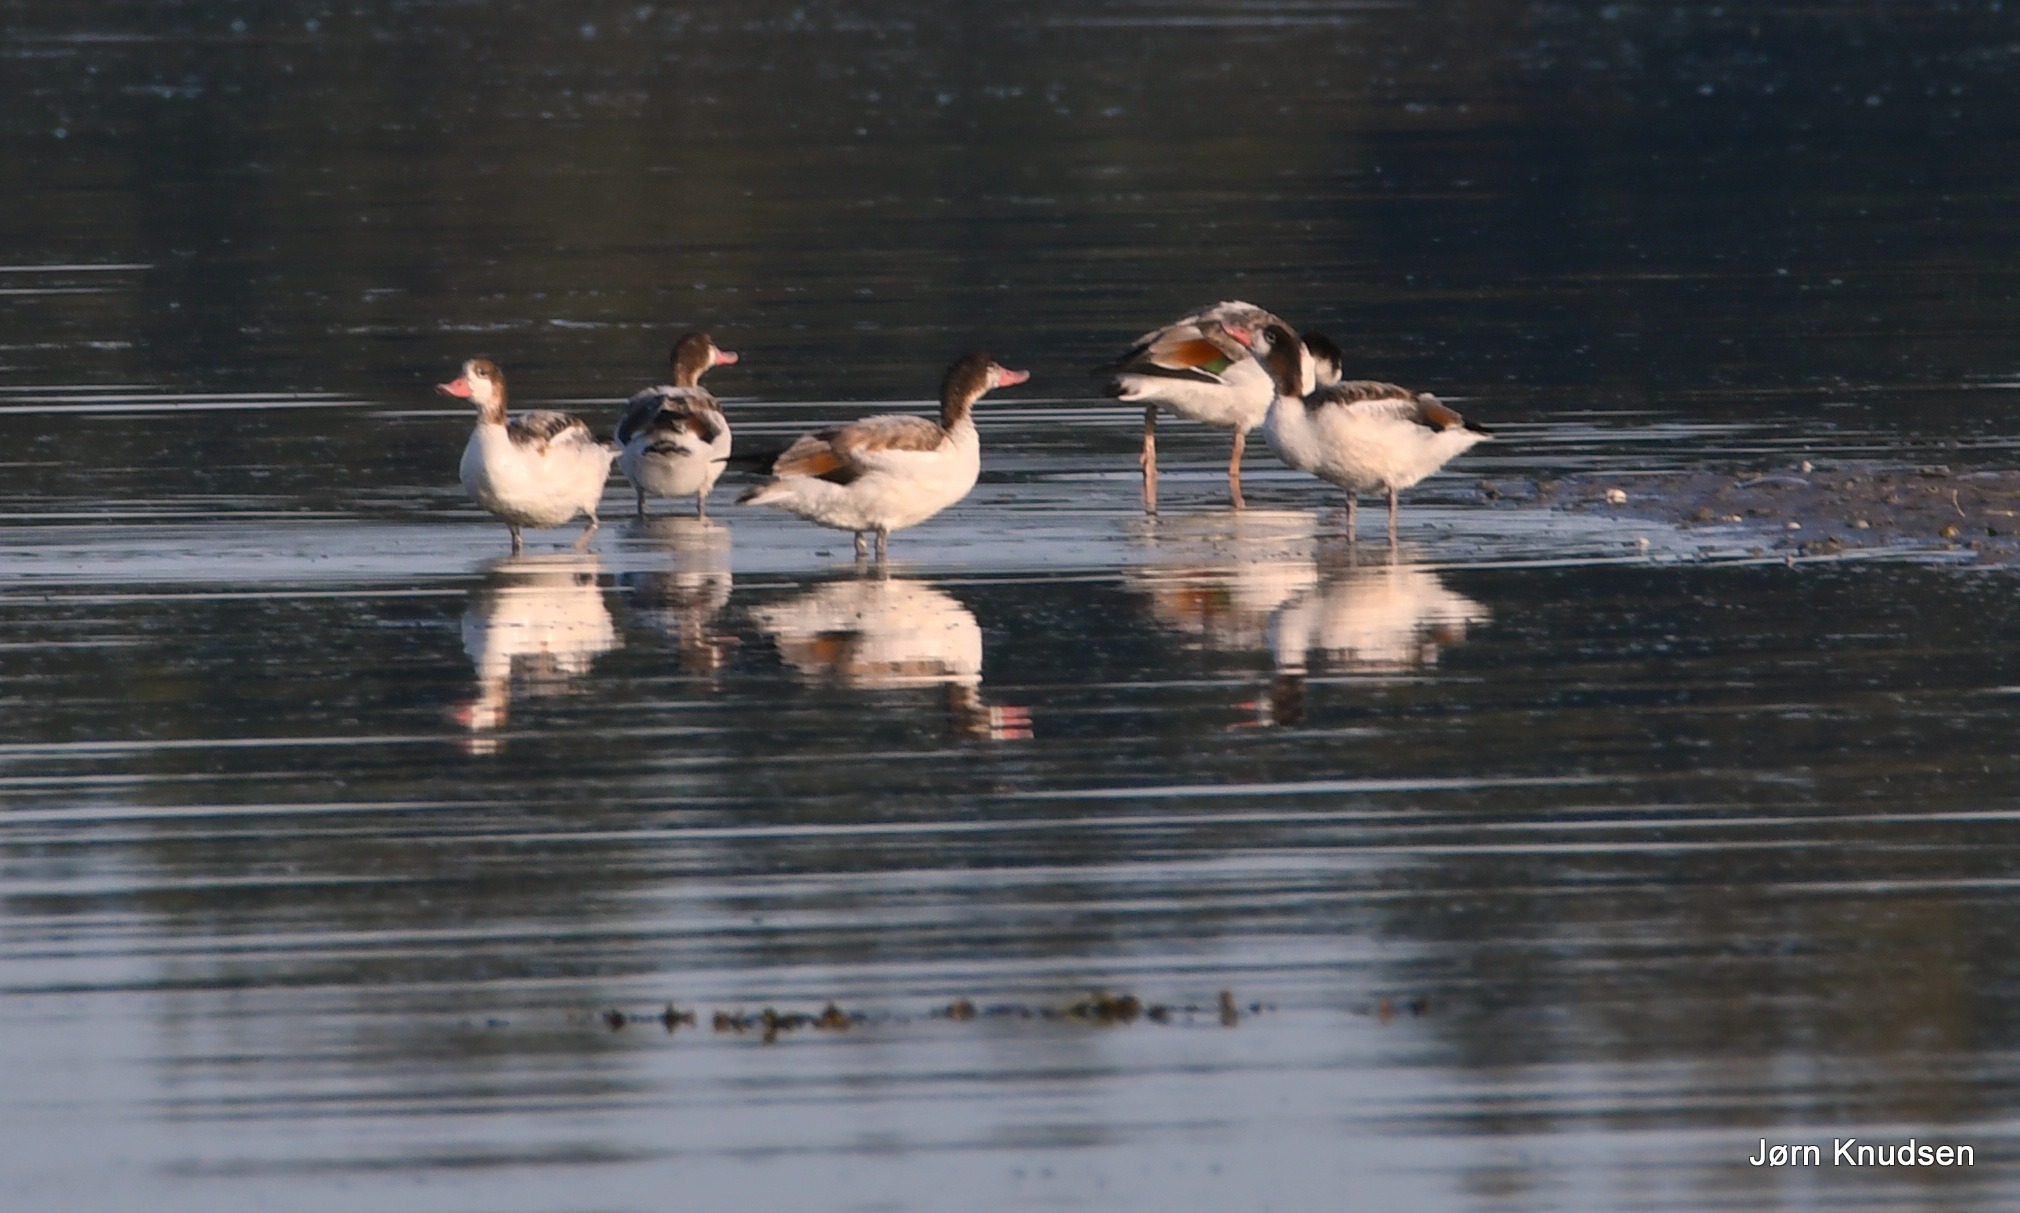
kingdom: Animalia
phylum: Chordata
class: Aves
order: Anseriformes
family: Anatidae
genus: Tadorna
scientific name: Tadorna tadorna
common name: Gravand
